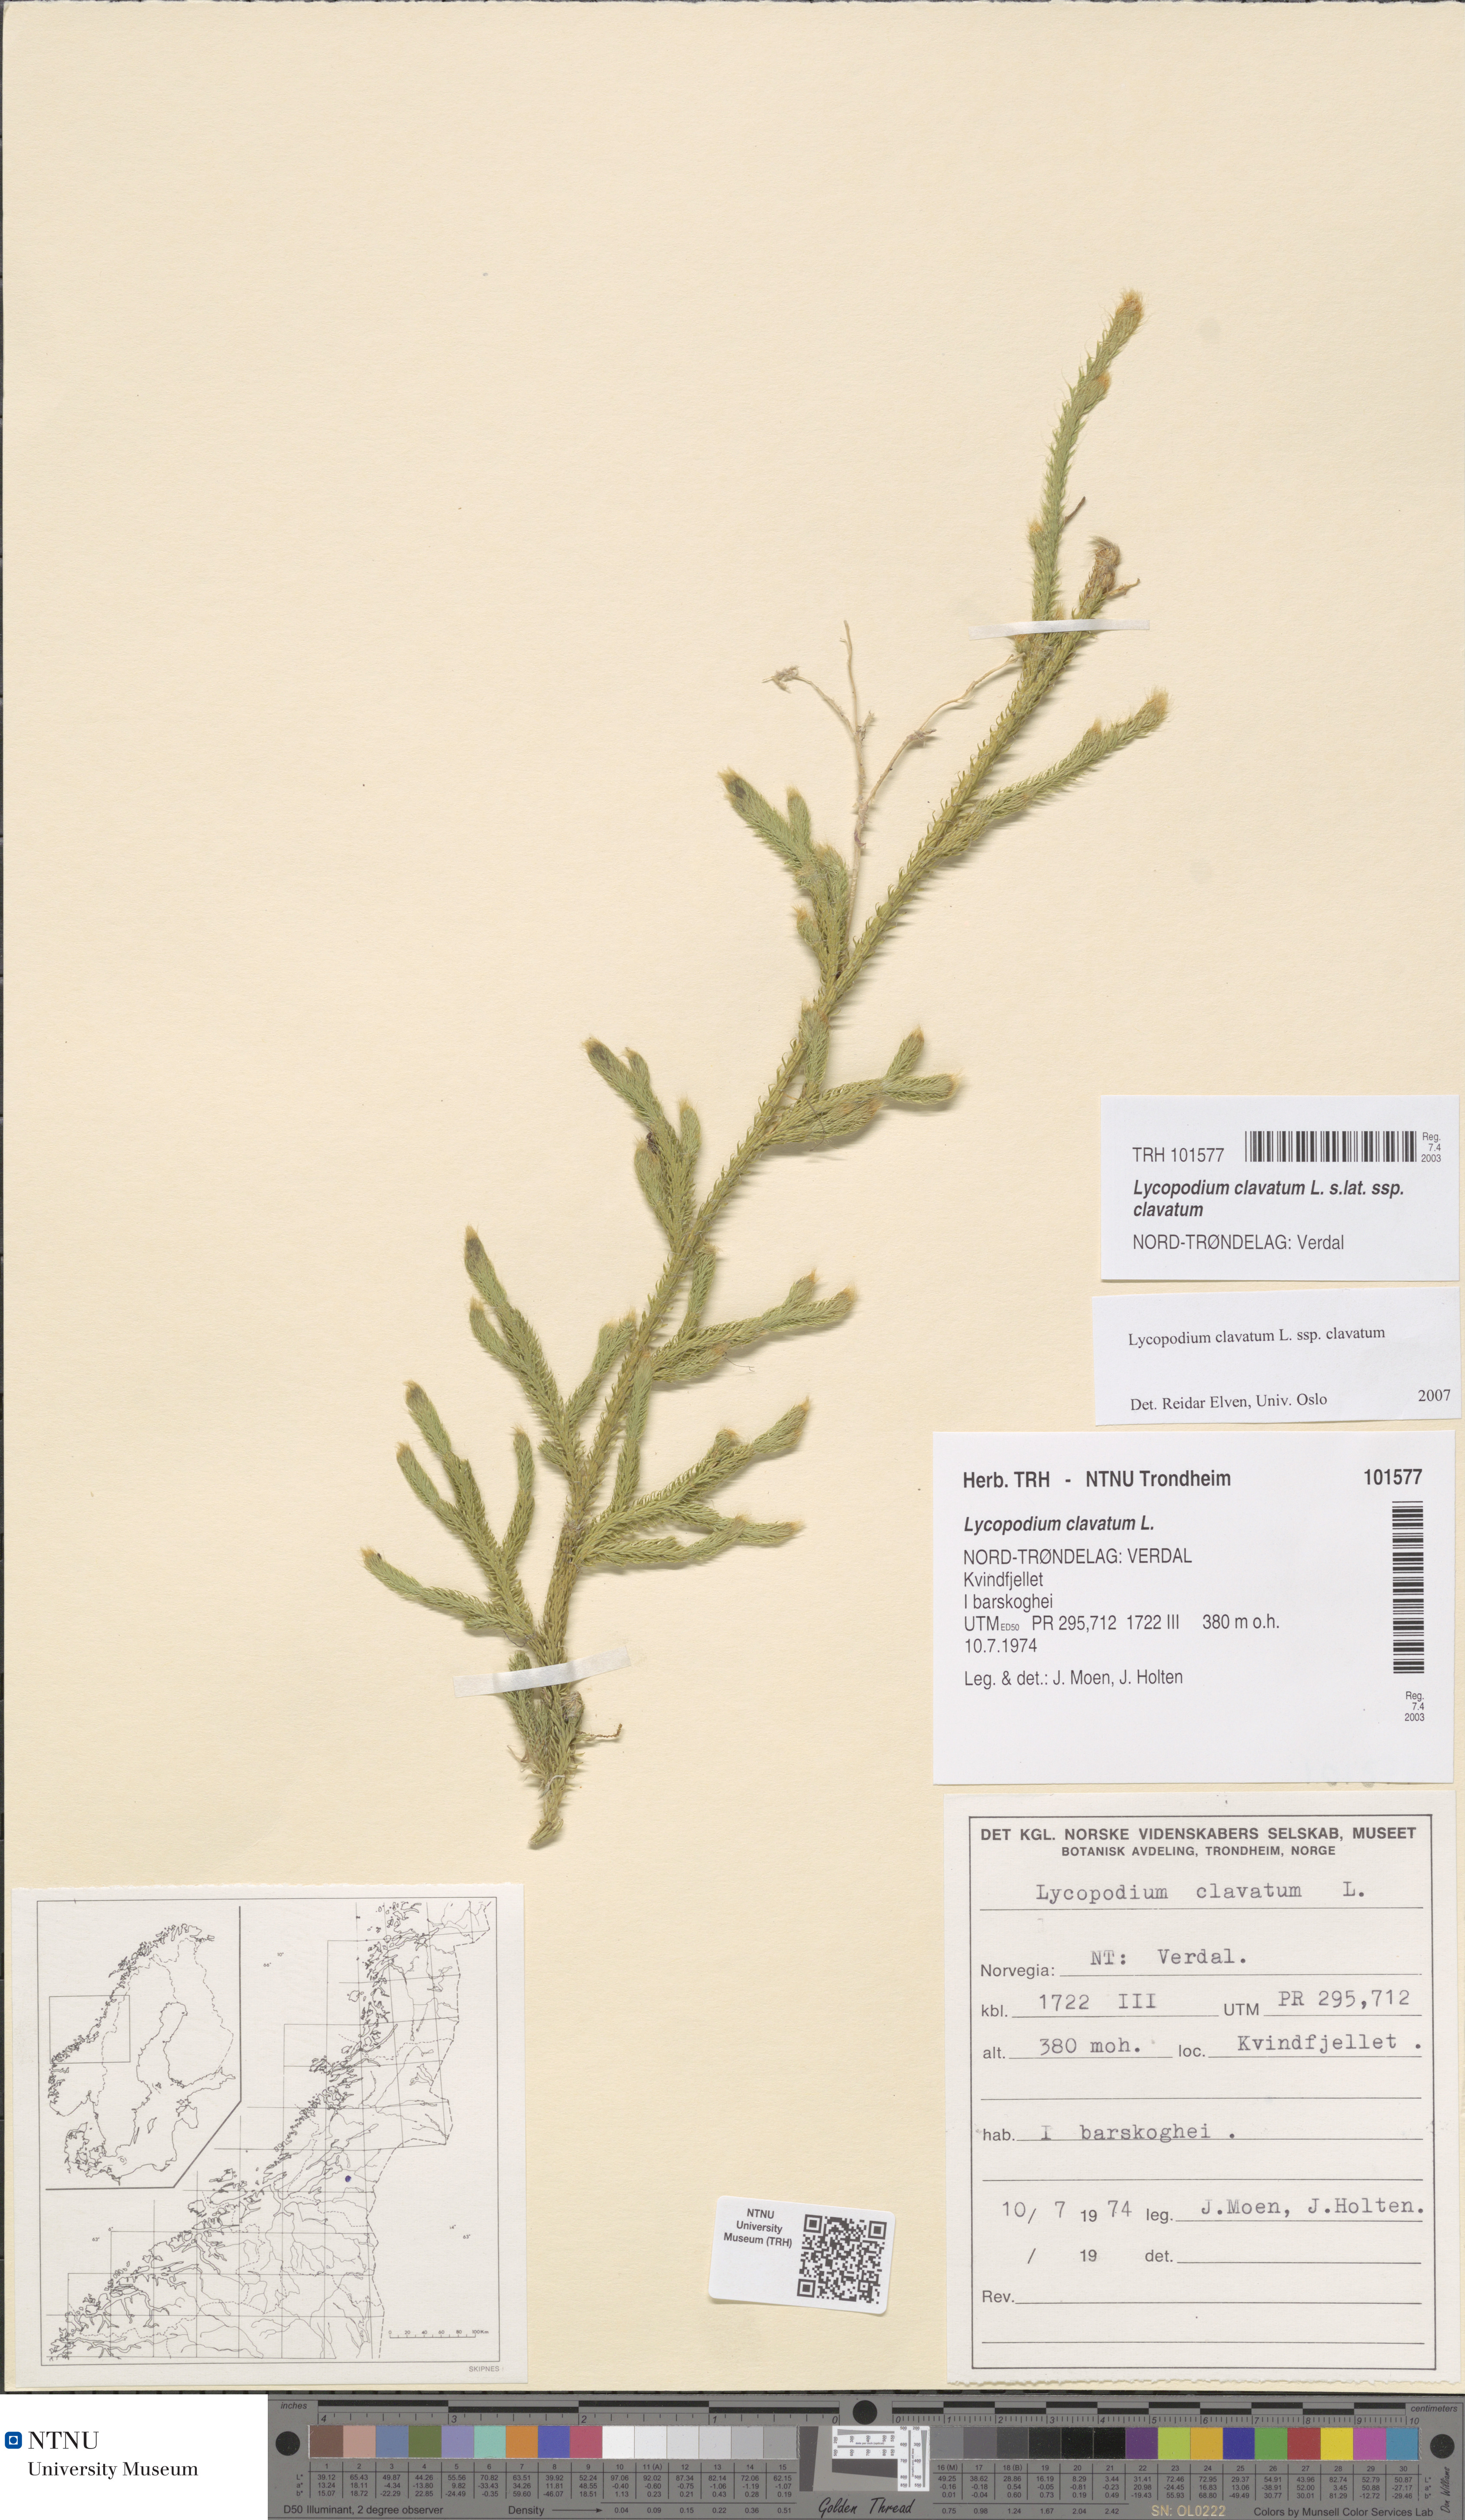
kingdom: Plantae
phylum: Tracheophyta
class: Lycopodiopsida
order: Lycopodiales
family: Lycopodiaceae
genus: Lycopodium
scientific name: Lycopodium clavatum
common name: Stag's-horn clubmoss
